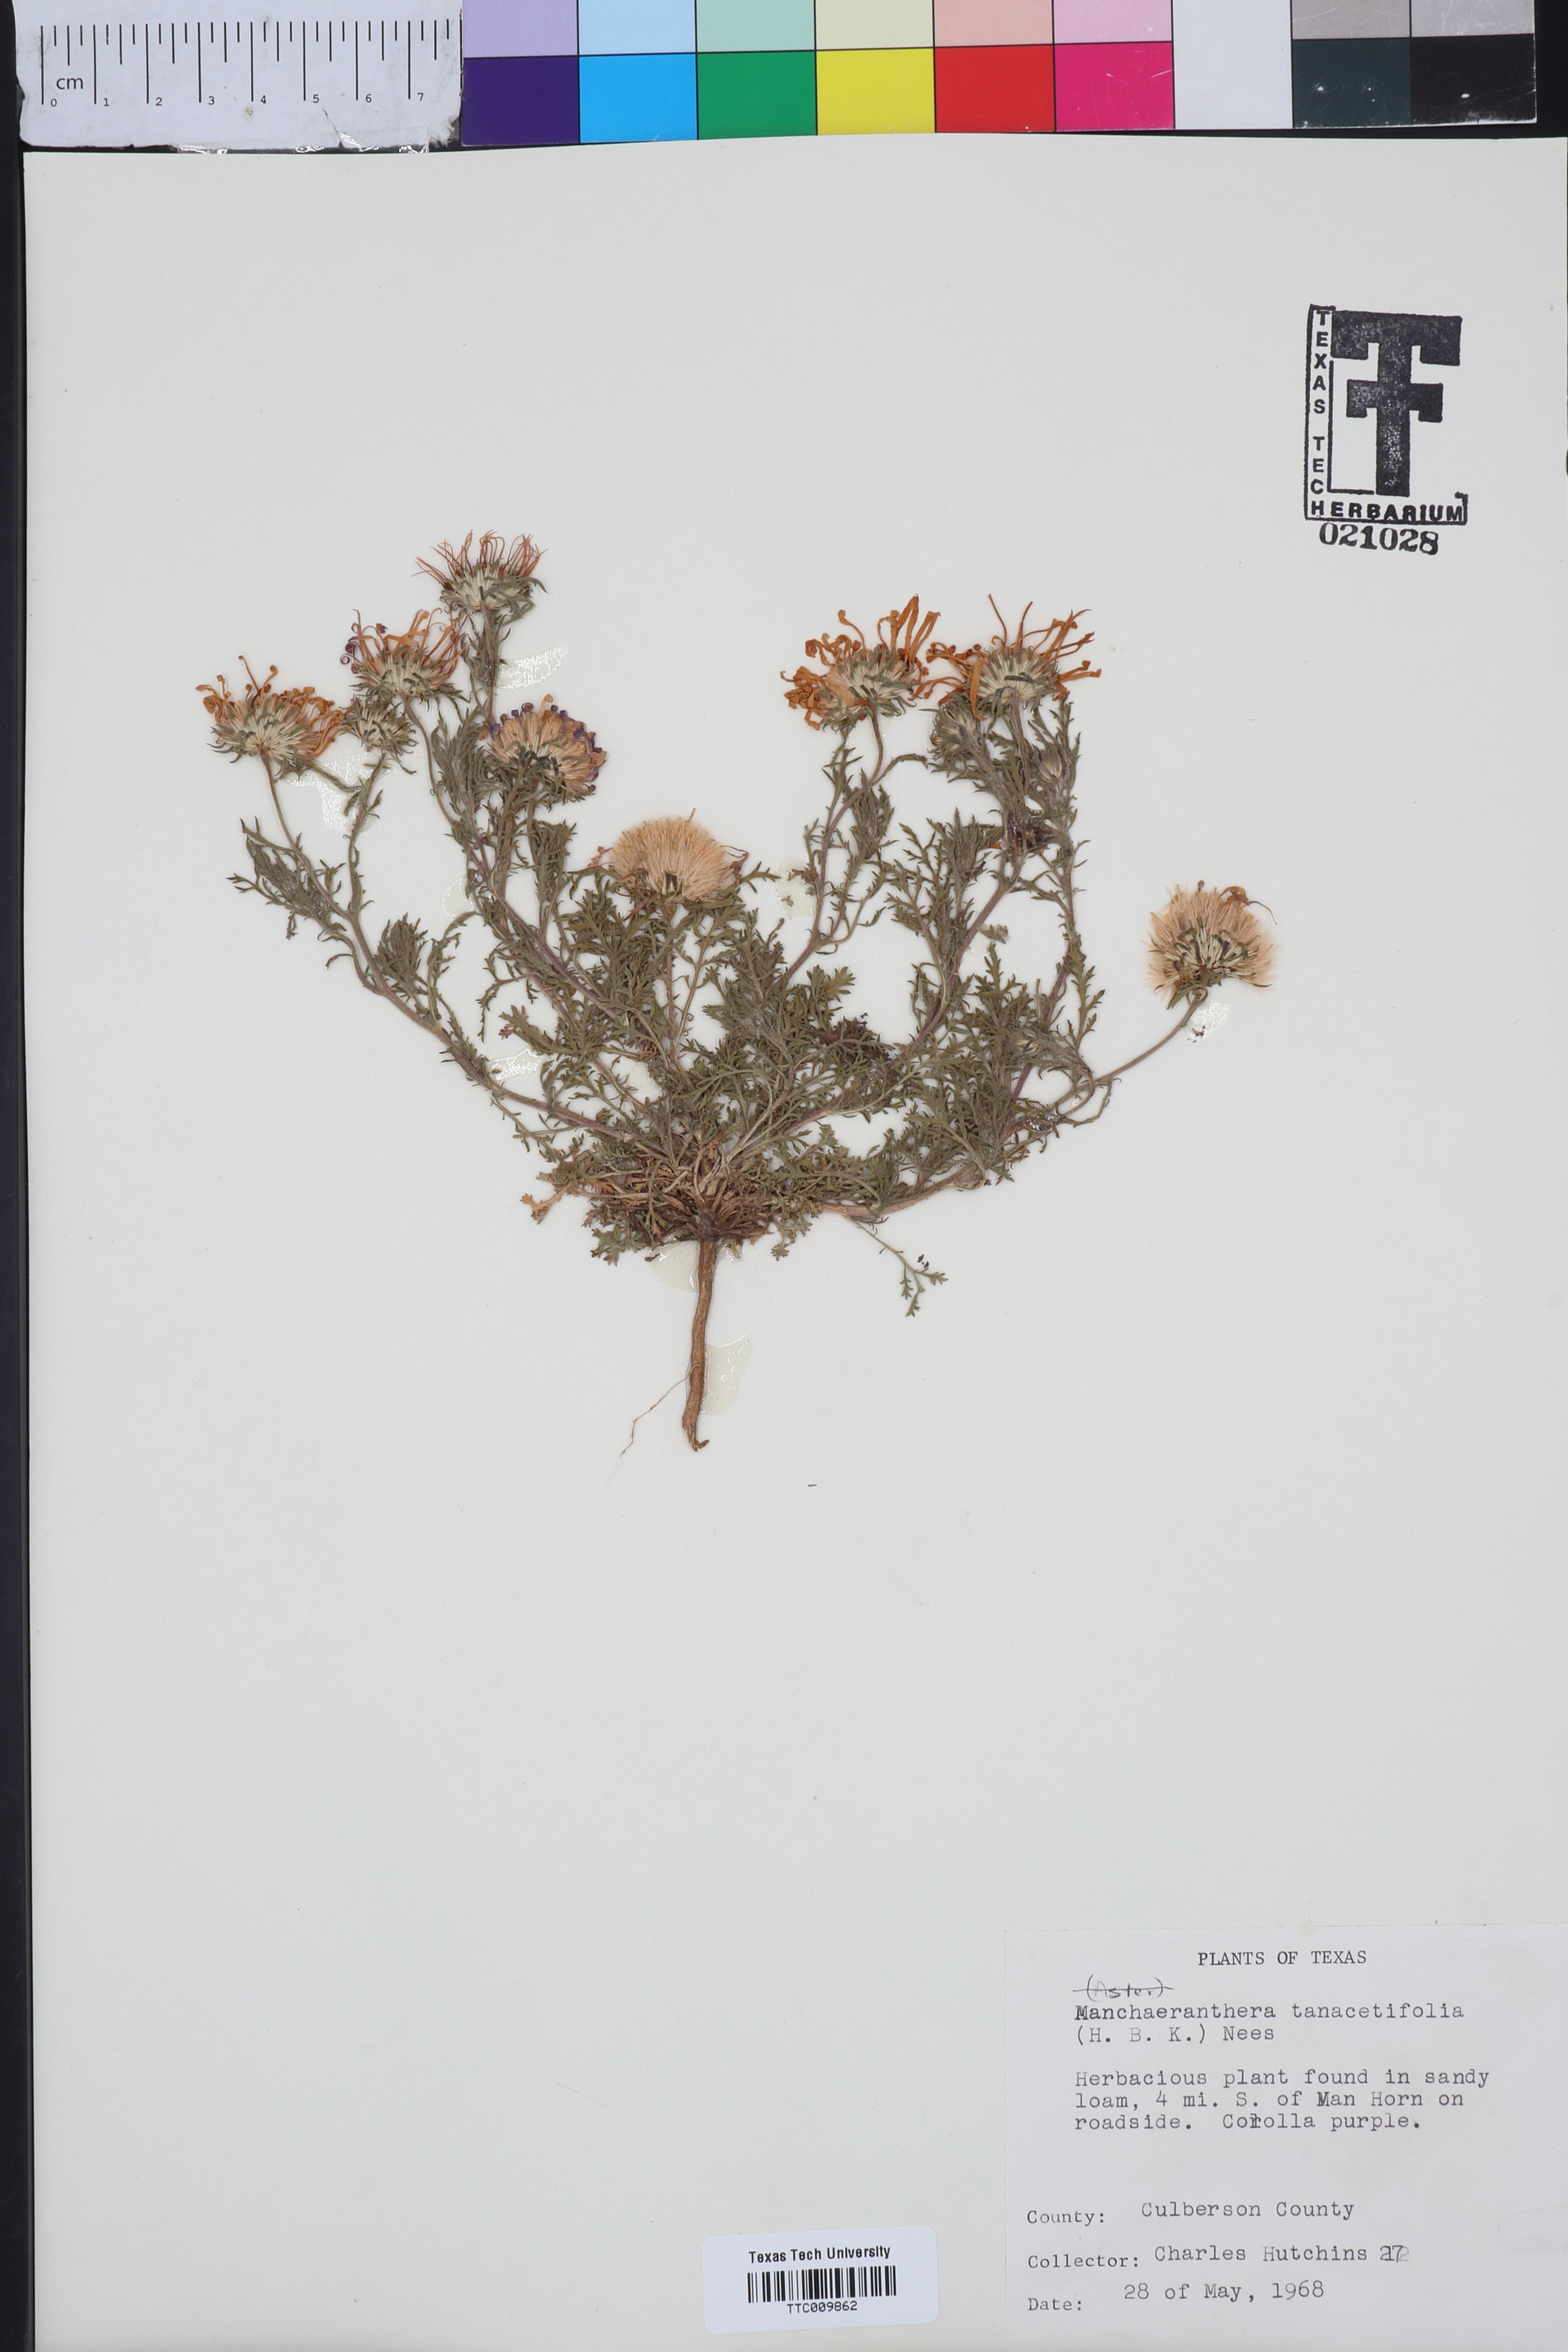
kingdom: Plantae
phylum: Tracheophyta
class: Magnoliopsida
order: Asterales
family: Asteraceae
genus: Machaeranthera
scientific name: Machaeranthera tanacetifolia
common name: Tansy-aster
